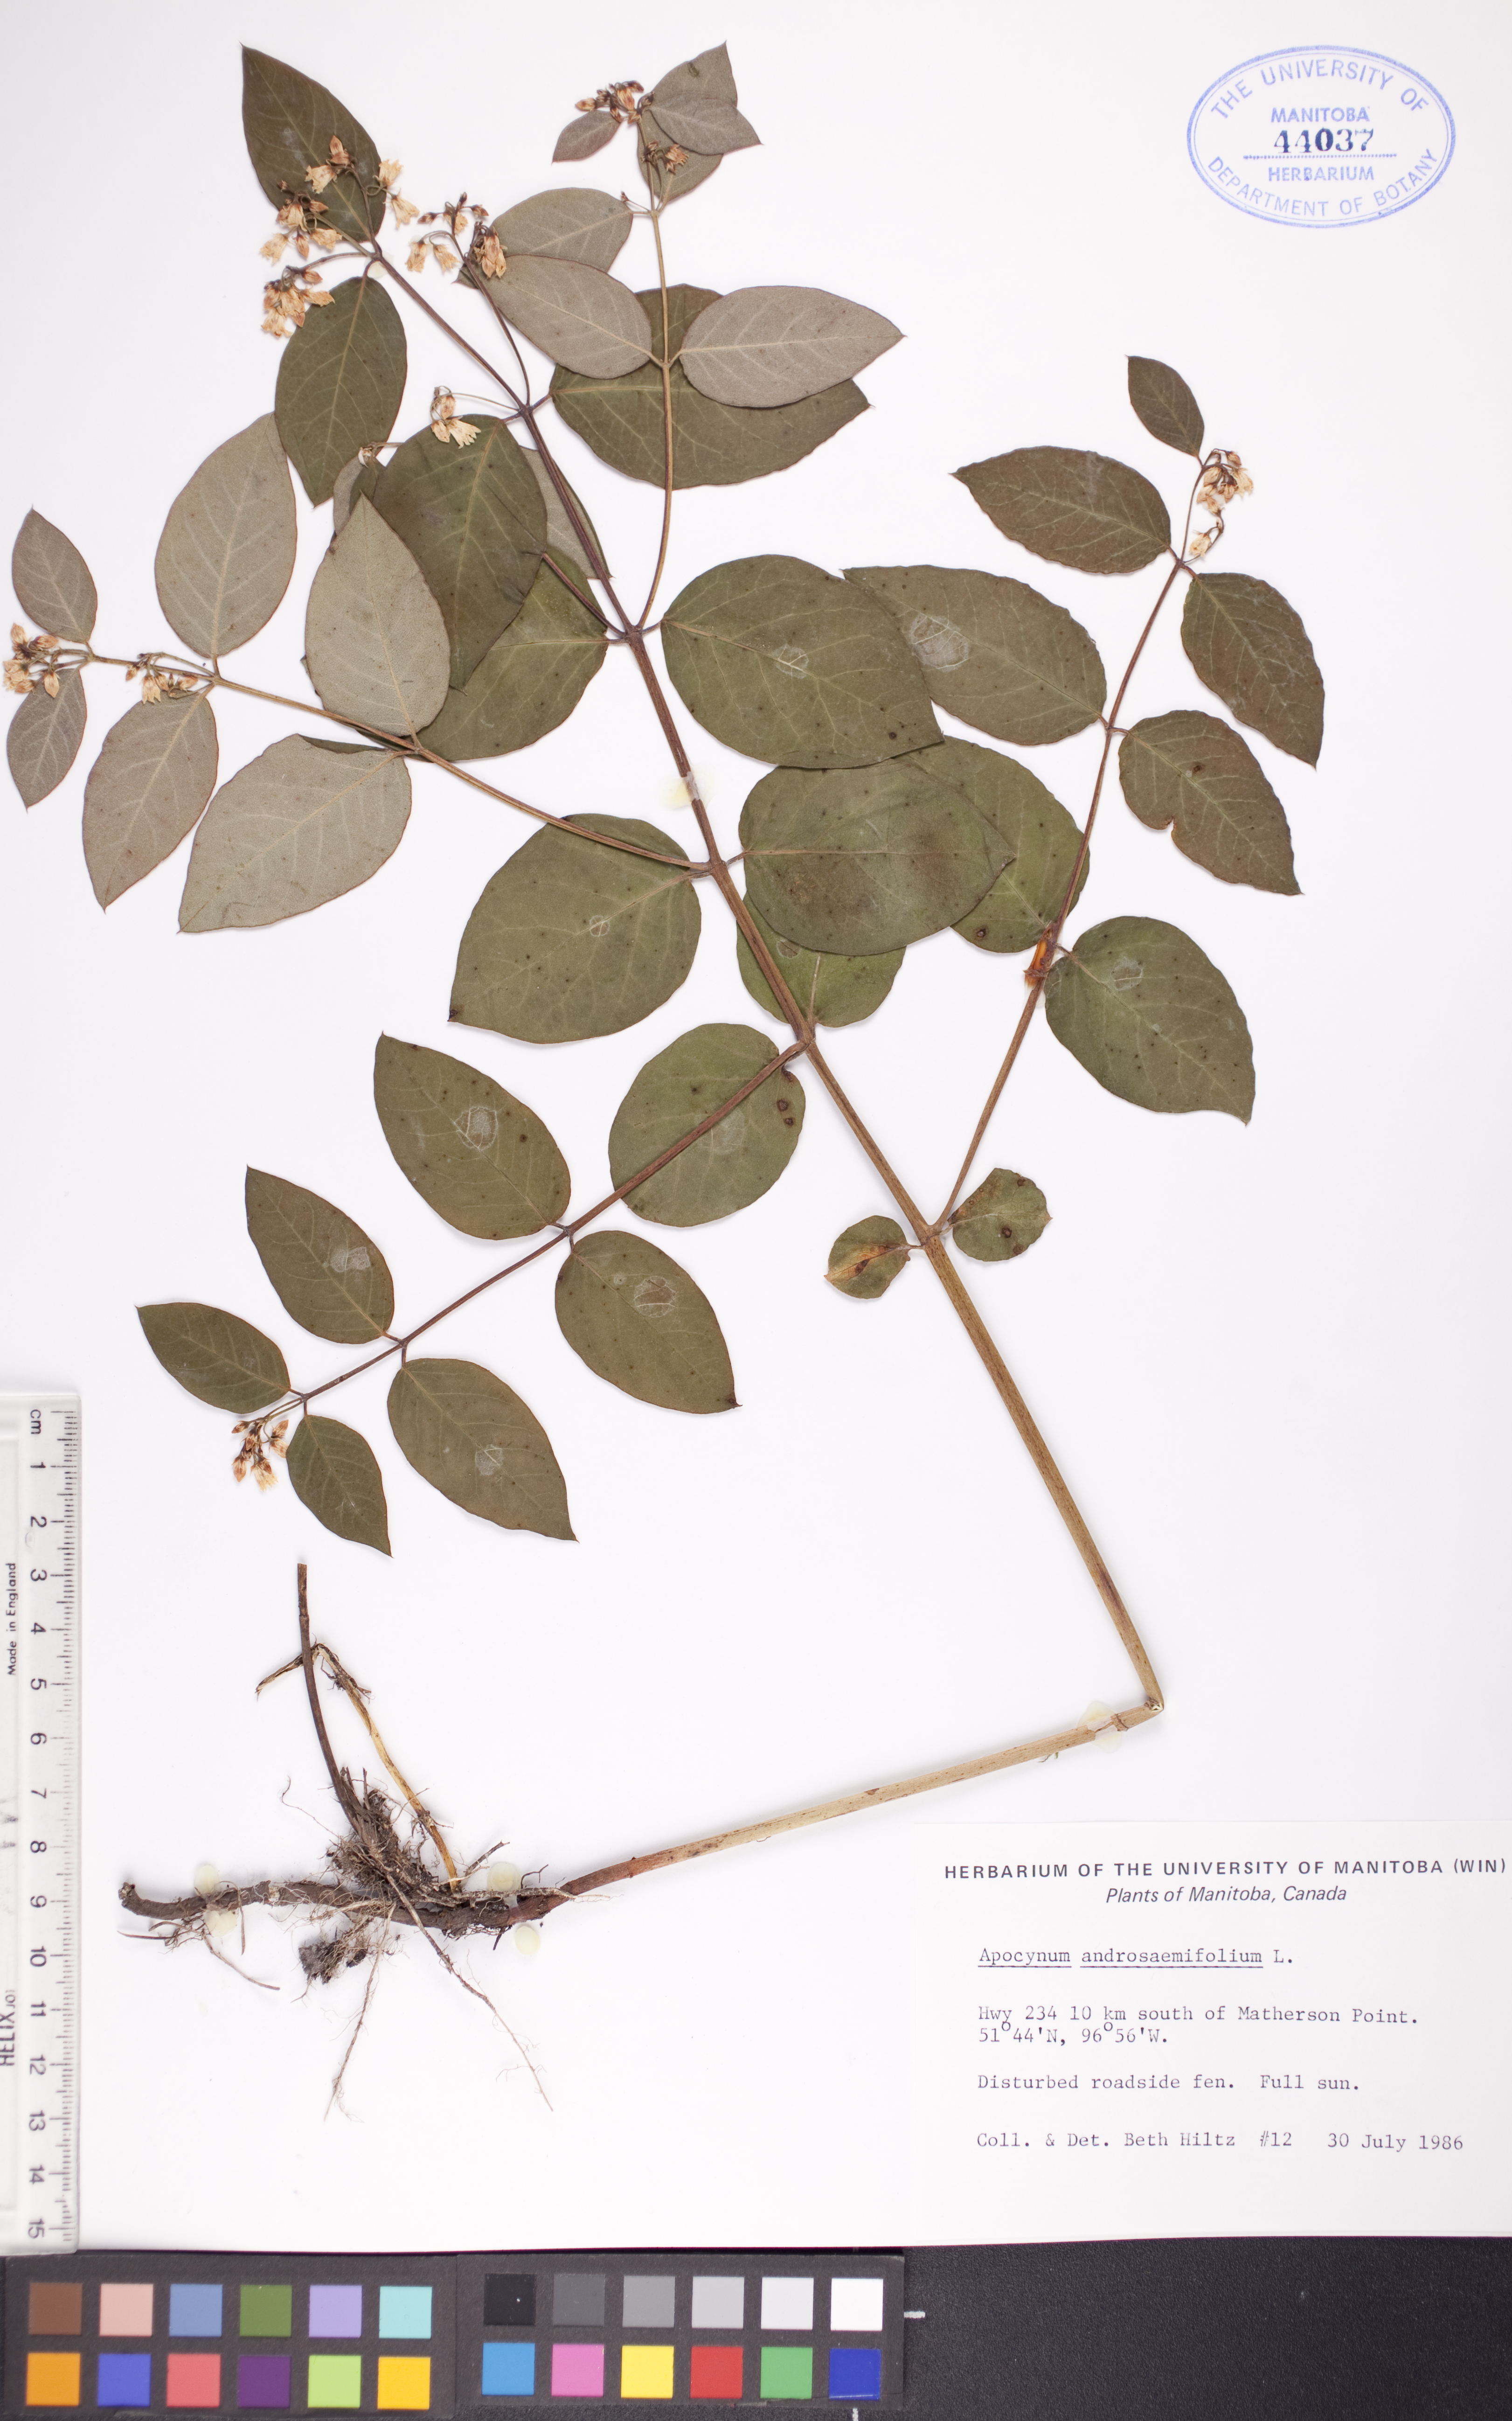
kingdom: Plantae
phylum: Tracheophyta
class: Magnoliopsida
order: Gentianales
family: Apocynaceae
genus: Apocynum
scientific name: Apocynum androsaemifolium
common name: Spreading dogbane
